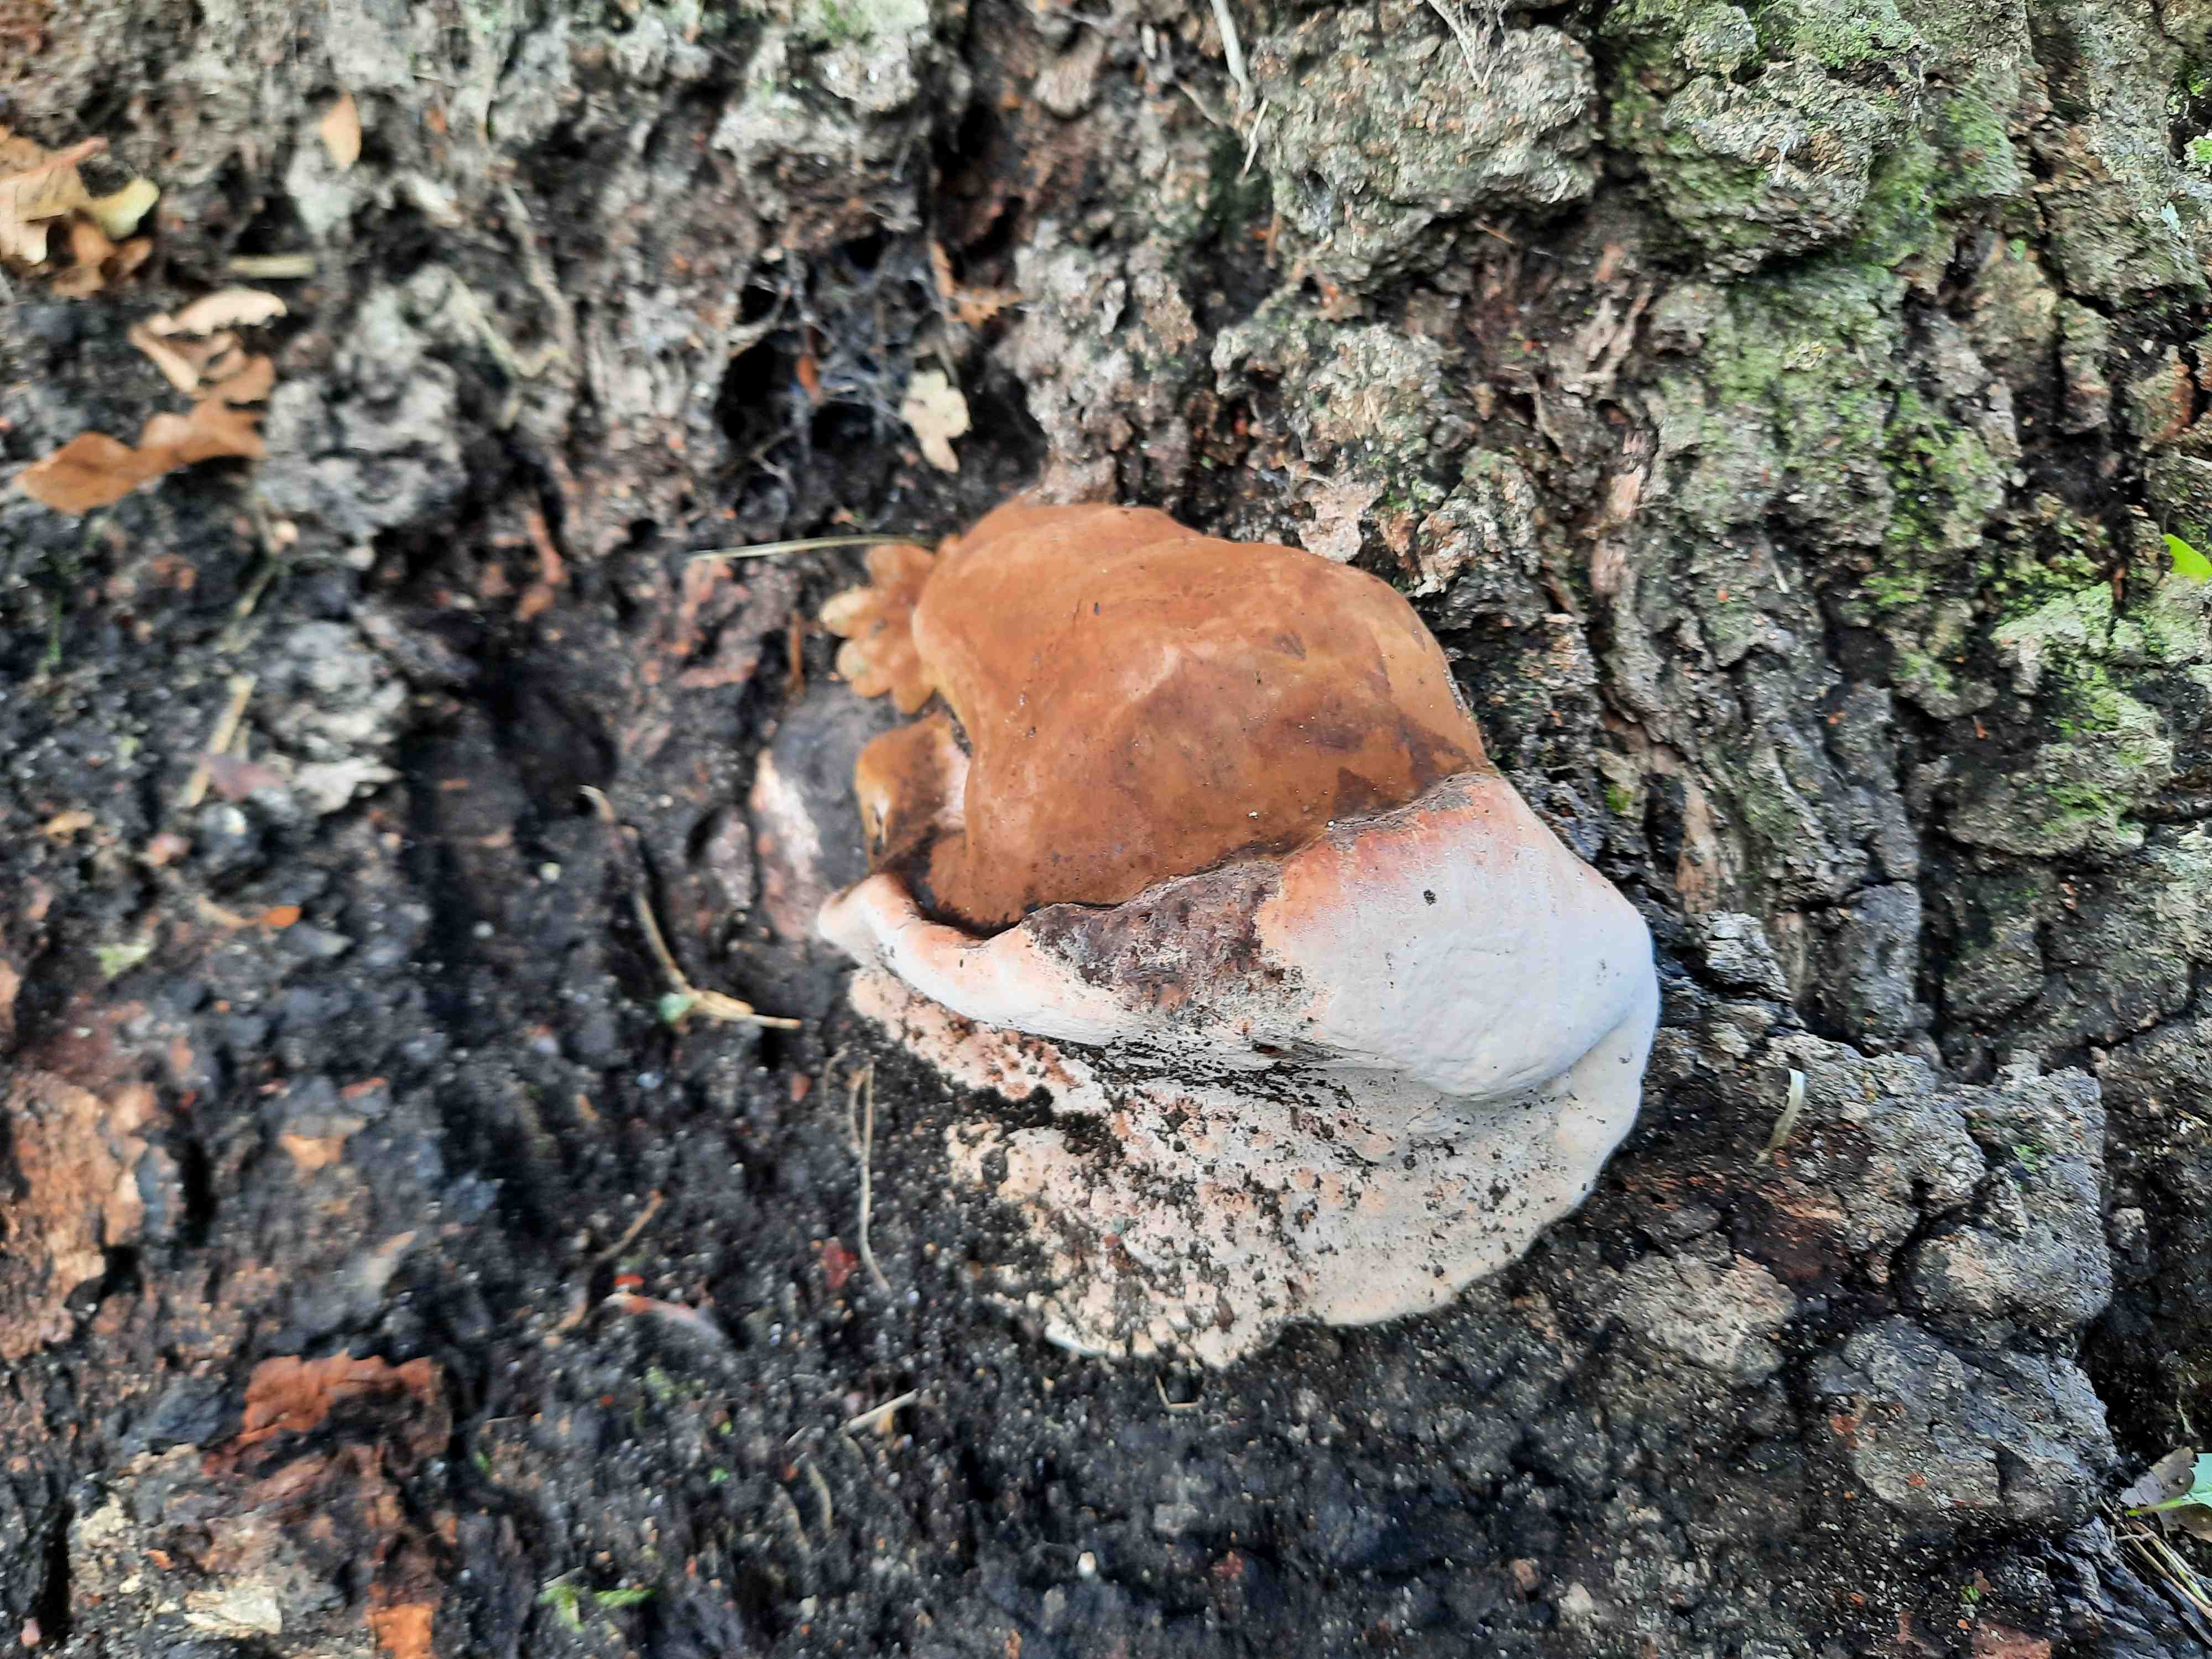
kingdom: Fungi
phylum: Basidiomycota
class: Agaricomycetes
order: Polyporales
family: Polyporaceae
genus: Ganoderma
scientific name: Ganoderma
